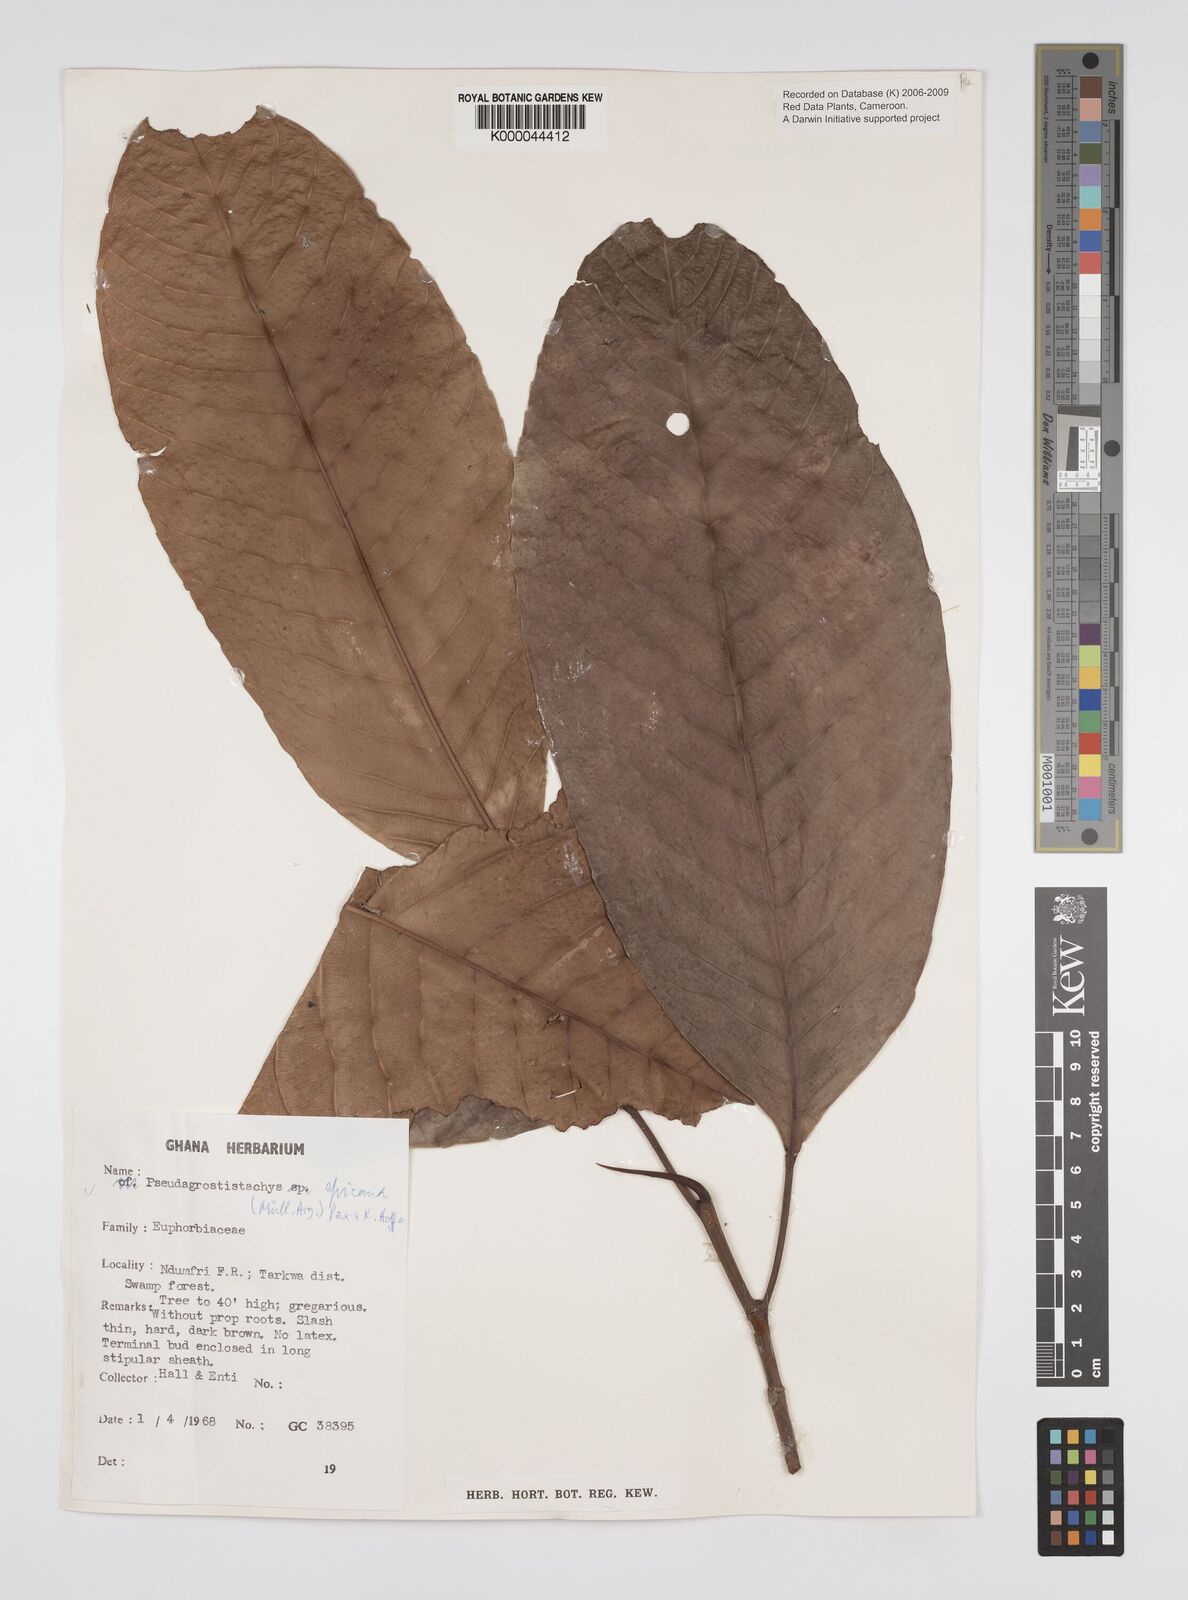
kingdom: Plantae
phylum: Tracheophyta
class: Magnoliopsida
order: Malpighiales
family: Euphorbiaceae
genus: Pseudagrostistachys
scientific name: Pseudagrostistachys
